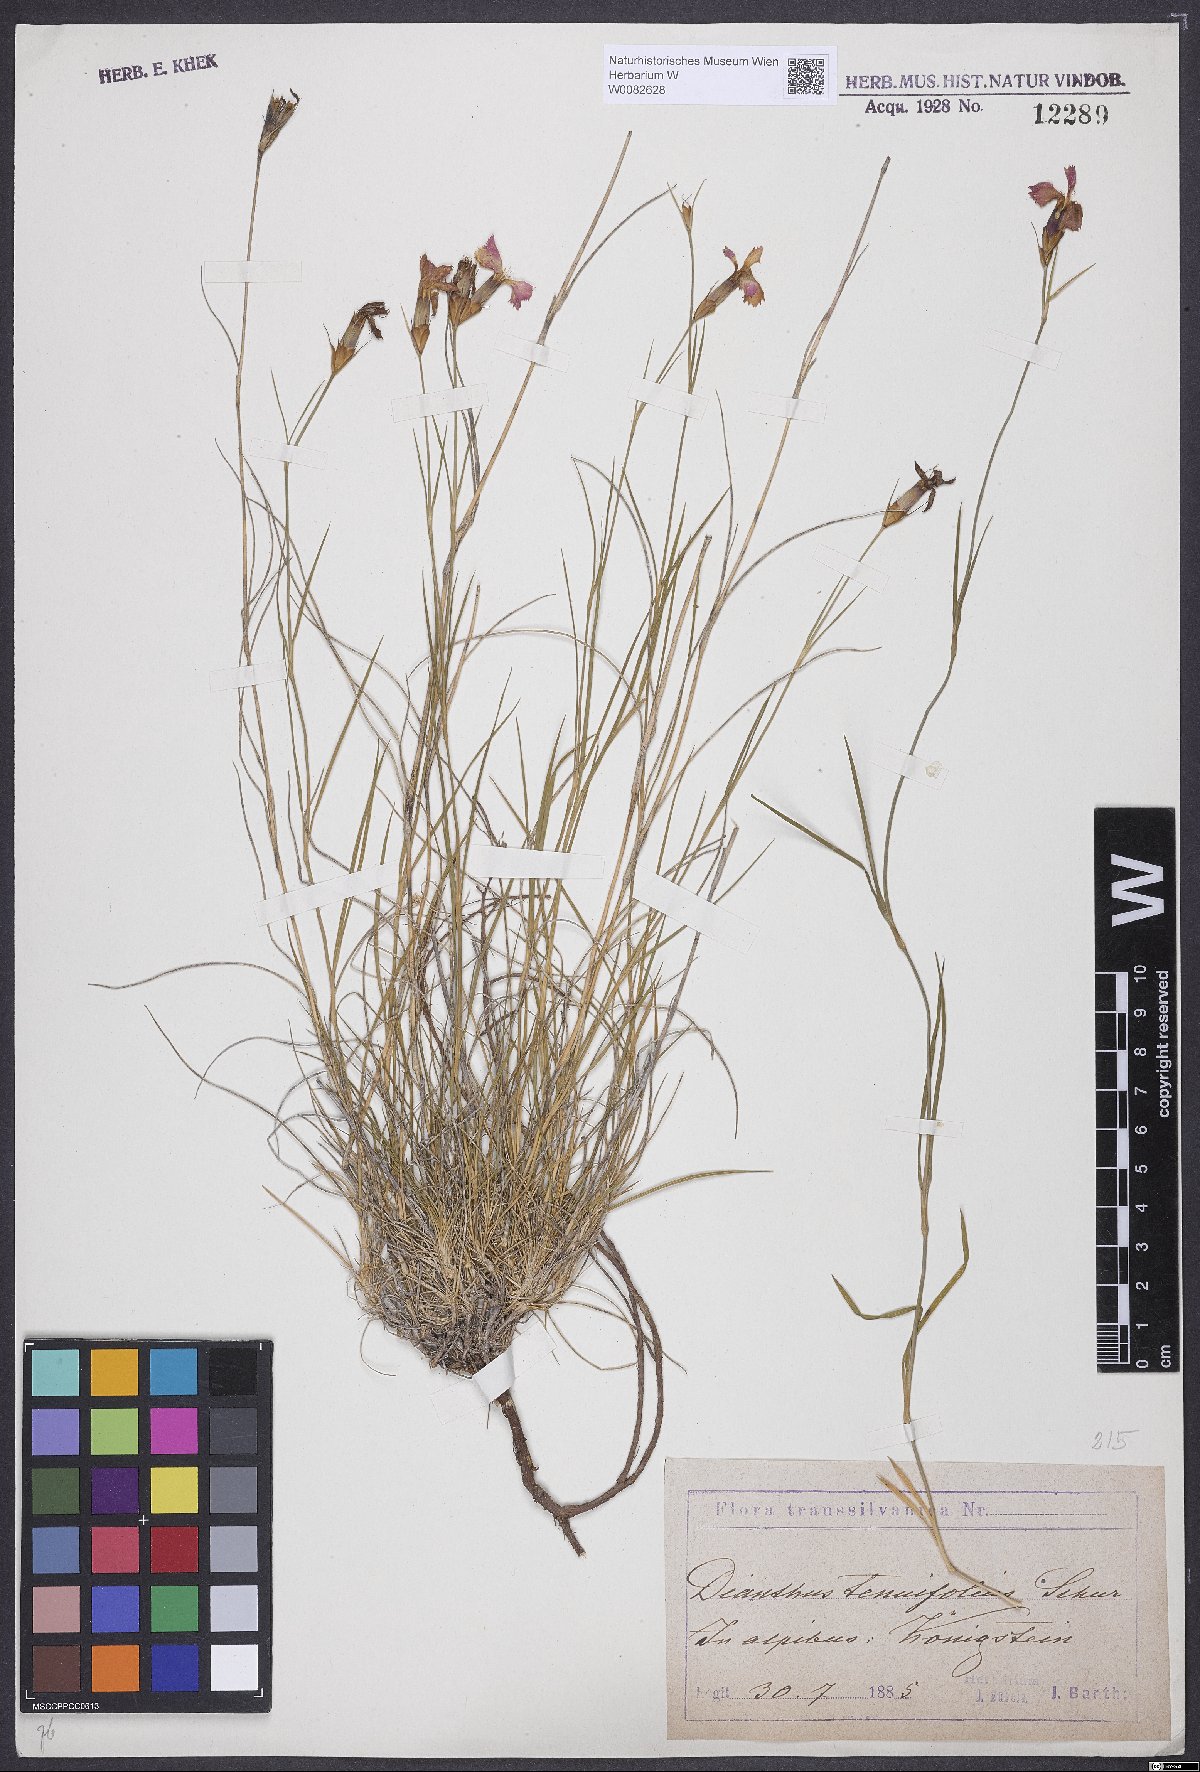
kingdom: Plantae
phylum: Tracheophyta
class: Magnoliopsida
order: Caryophyllales
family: Caryophyllaceae
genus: Dianthus
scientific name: Dianthus carthusianorum
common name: Carthusian pink
